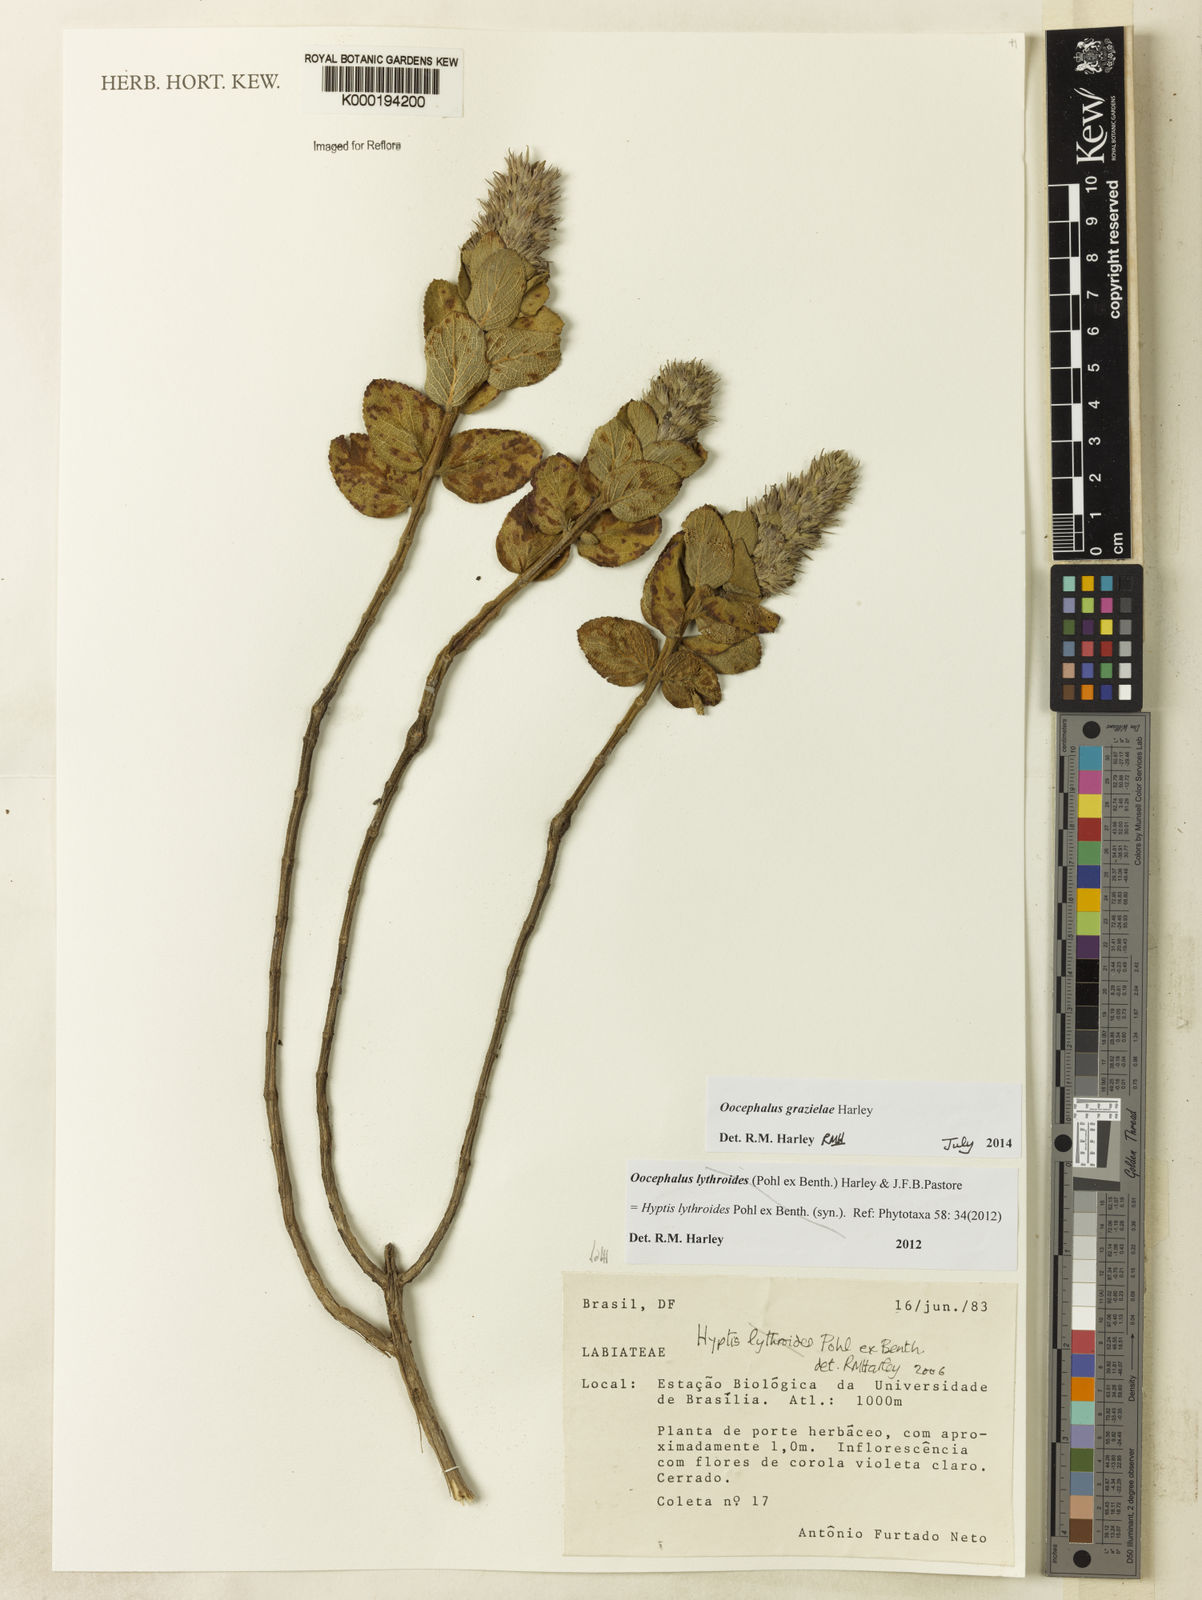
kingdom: Plantae
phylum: Tracheophyta
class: Magnoliopsida
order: Lamiales
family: Lamiaceae
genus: Oocephalus
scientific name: Oocephalus lythroides
